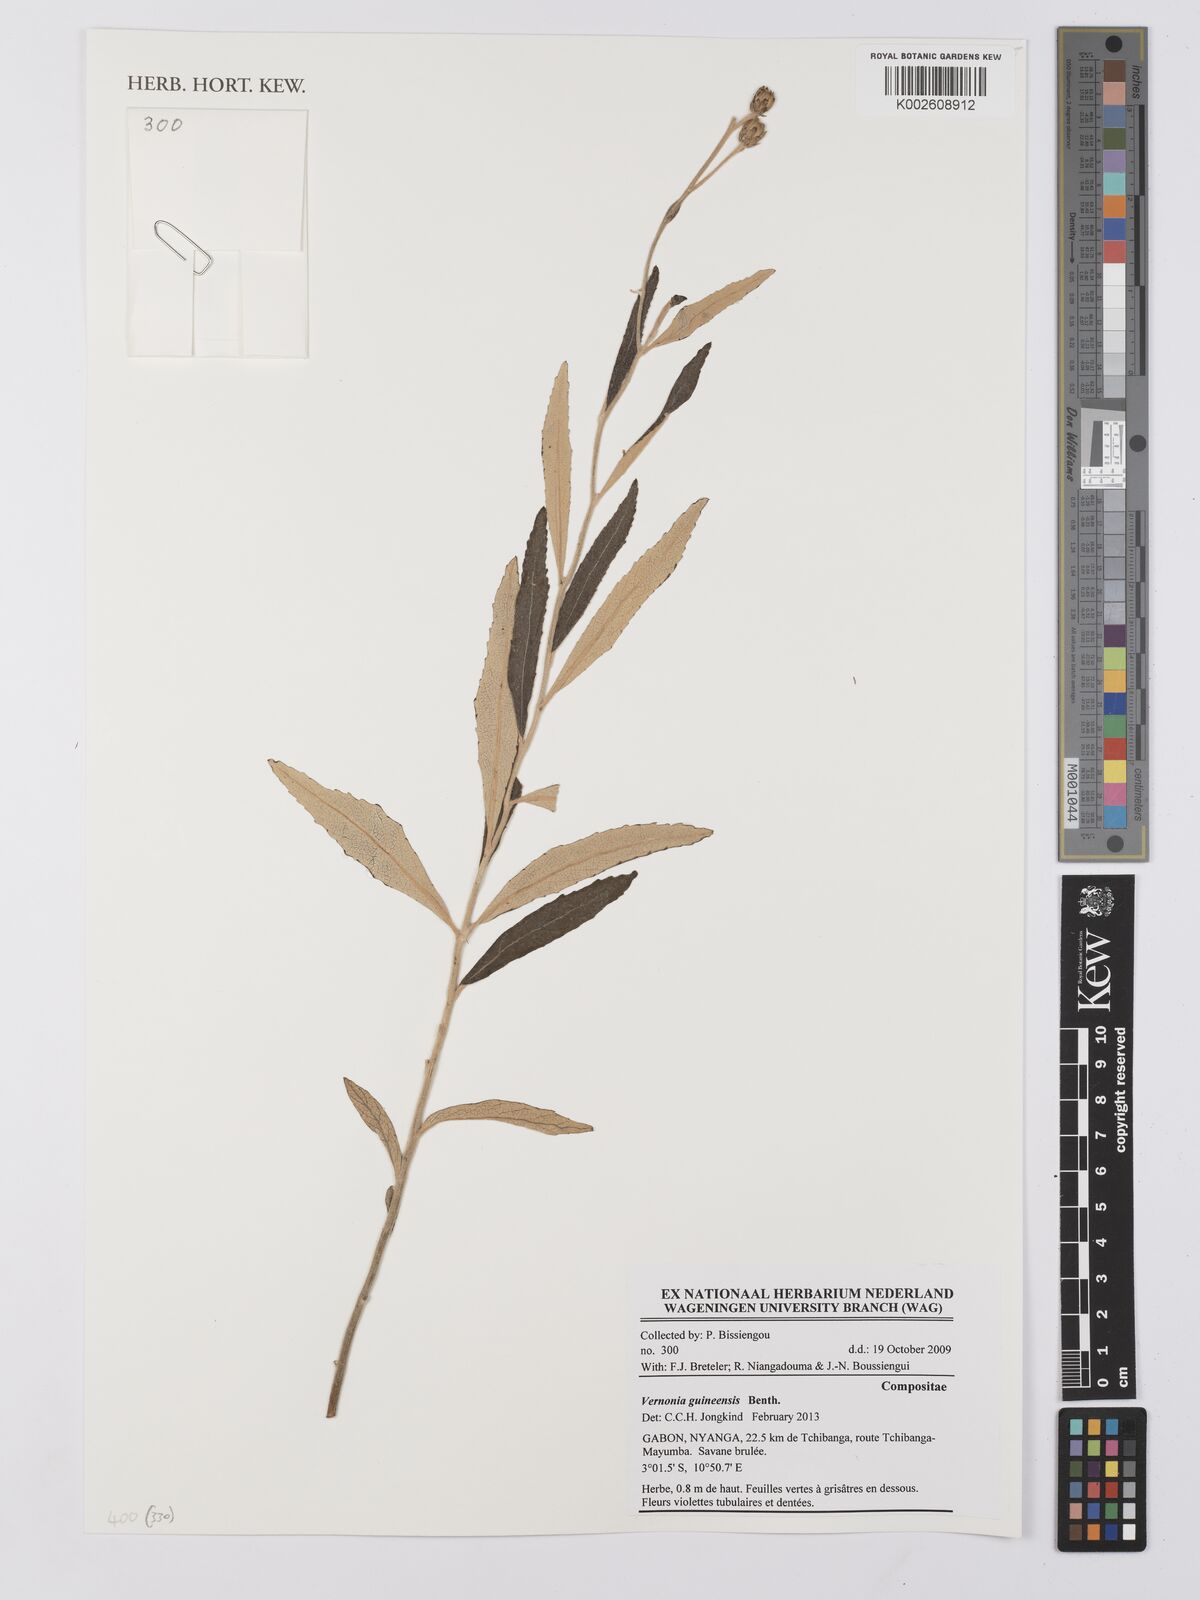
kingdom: Plantae
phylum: Tracheophyta
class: Magnoliopsida
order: Asterales
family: Asteraceae
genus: Baccharoides
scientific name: Baccharoides guineensis
